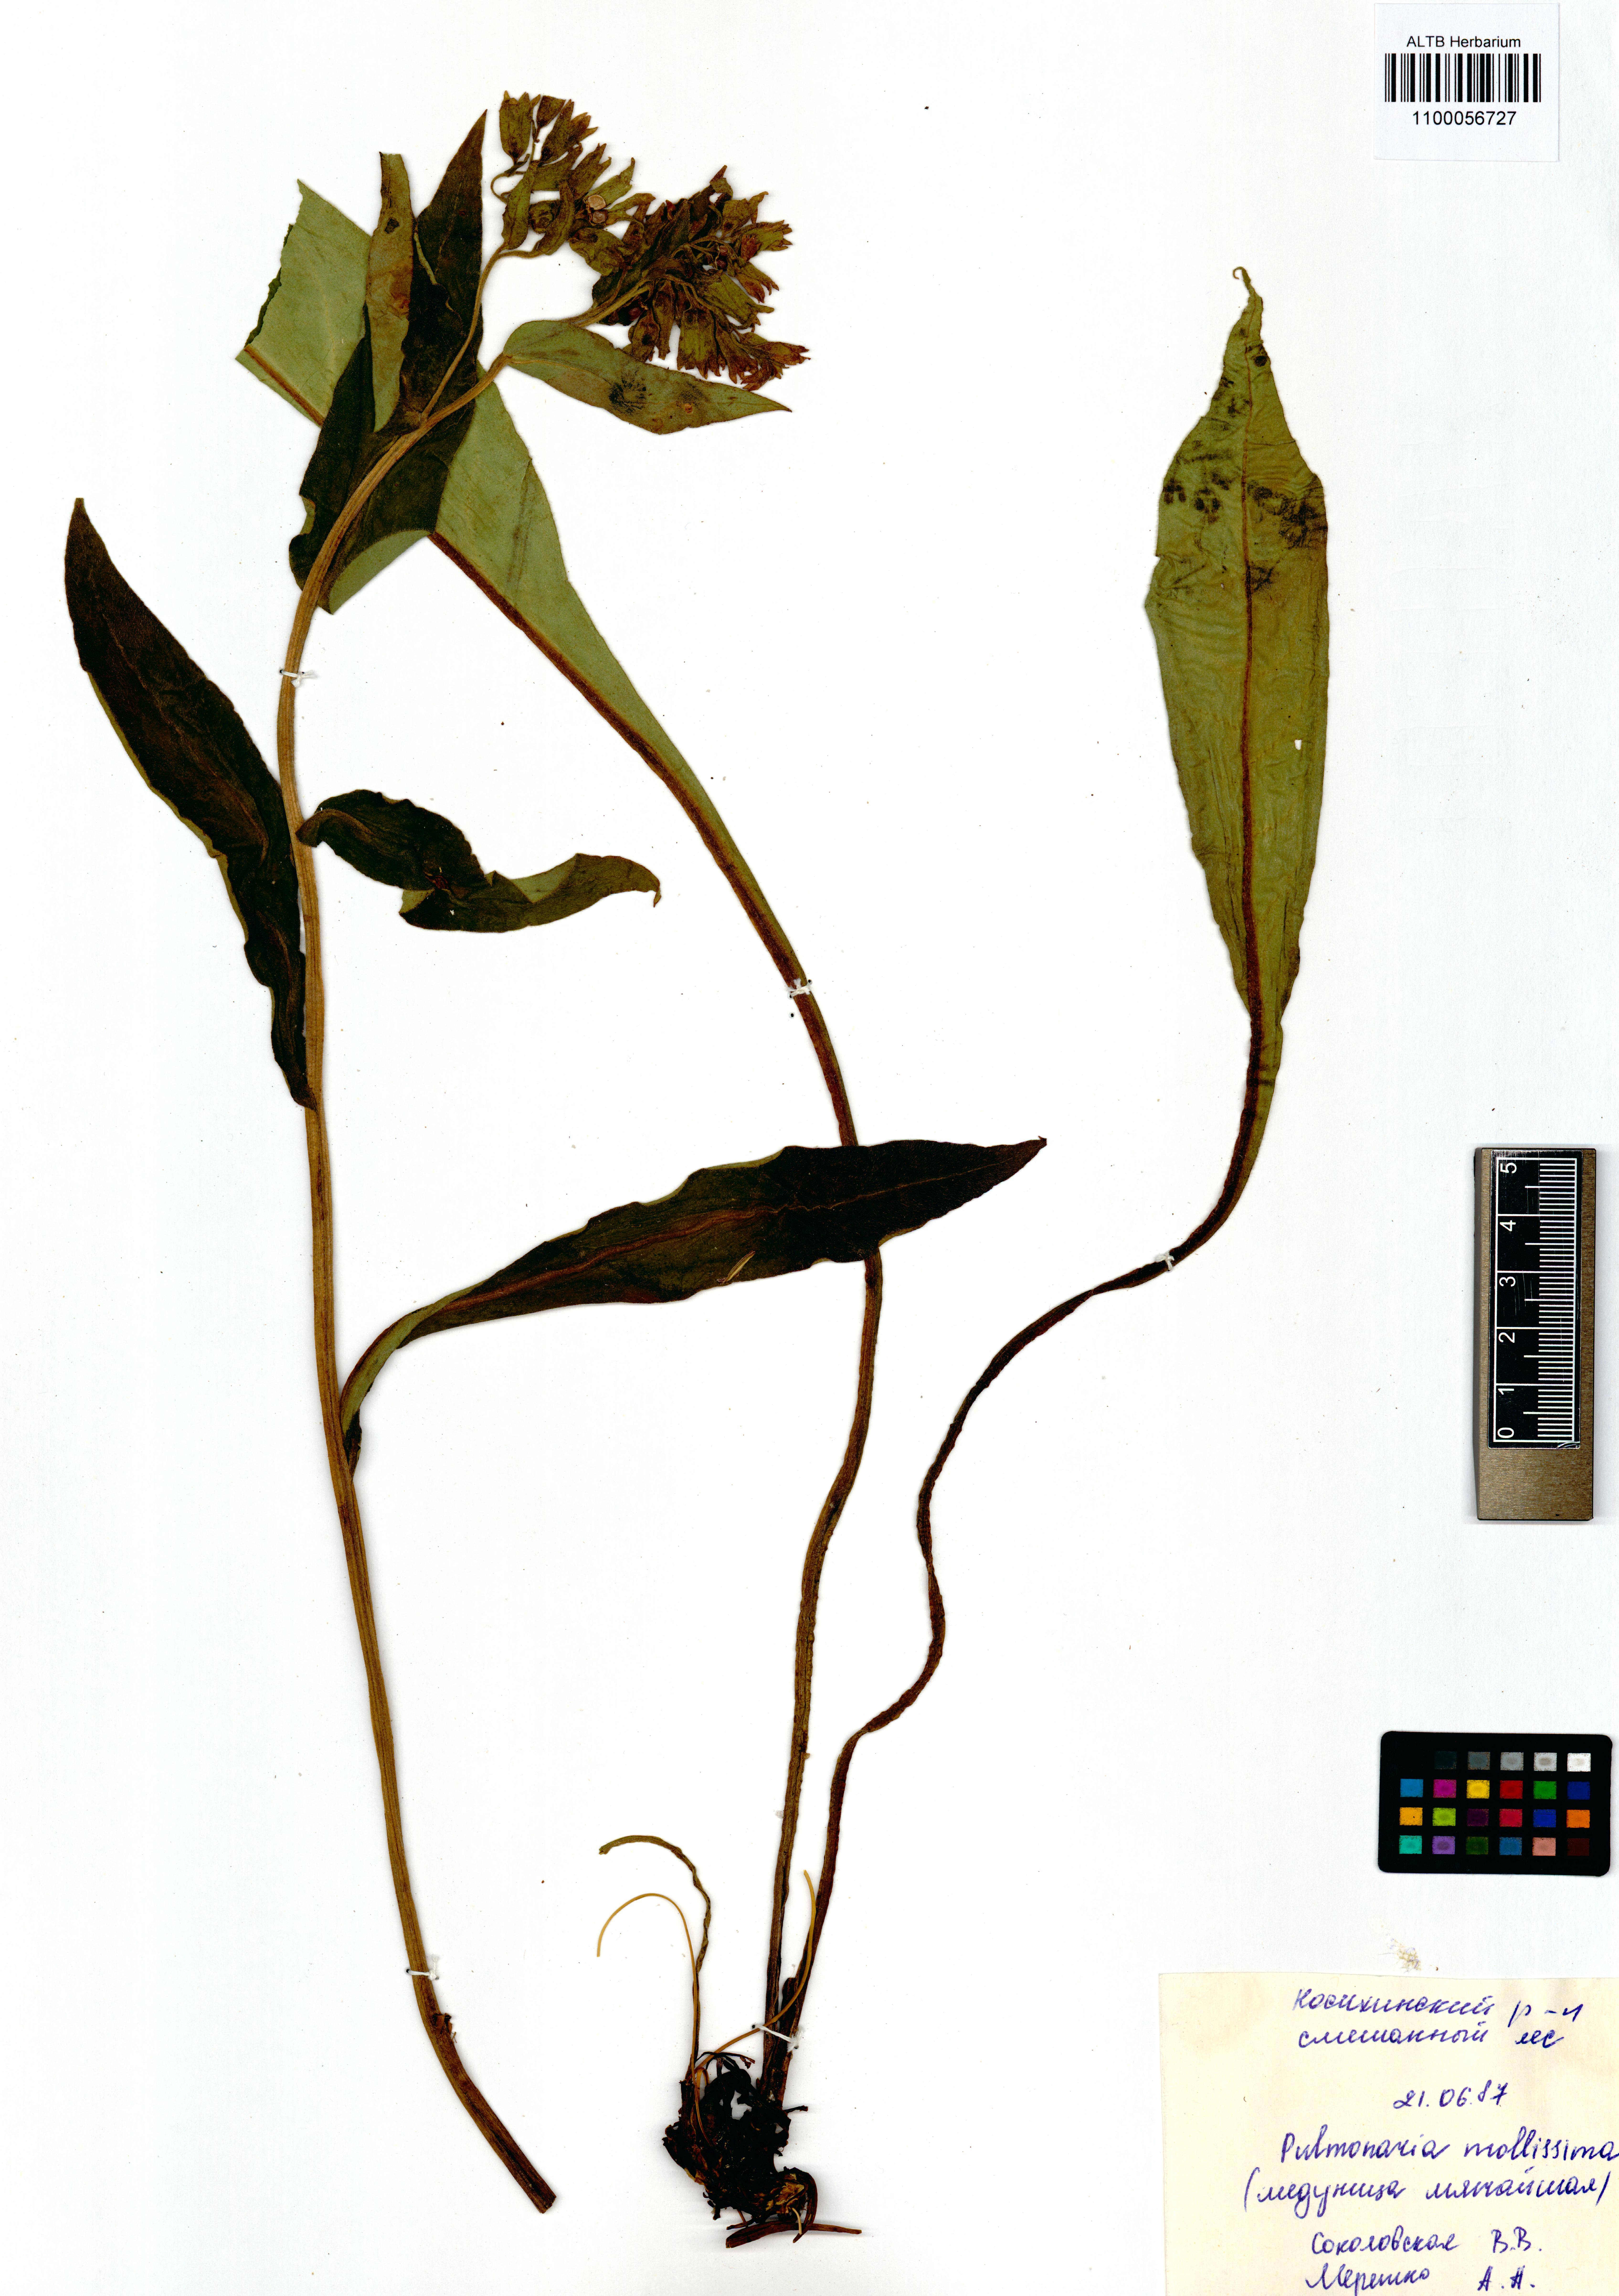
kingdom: Plantae
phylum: Tracheophyta
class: Magnoliopsida
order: Boraginales
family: Boraginaceae
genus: Pulmonaria
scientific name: Pulmonaria mollis
